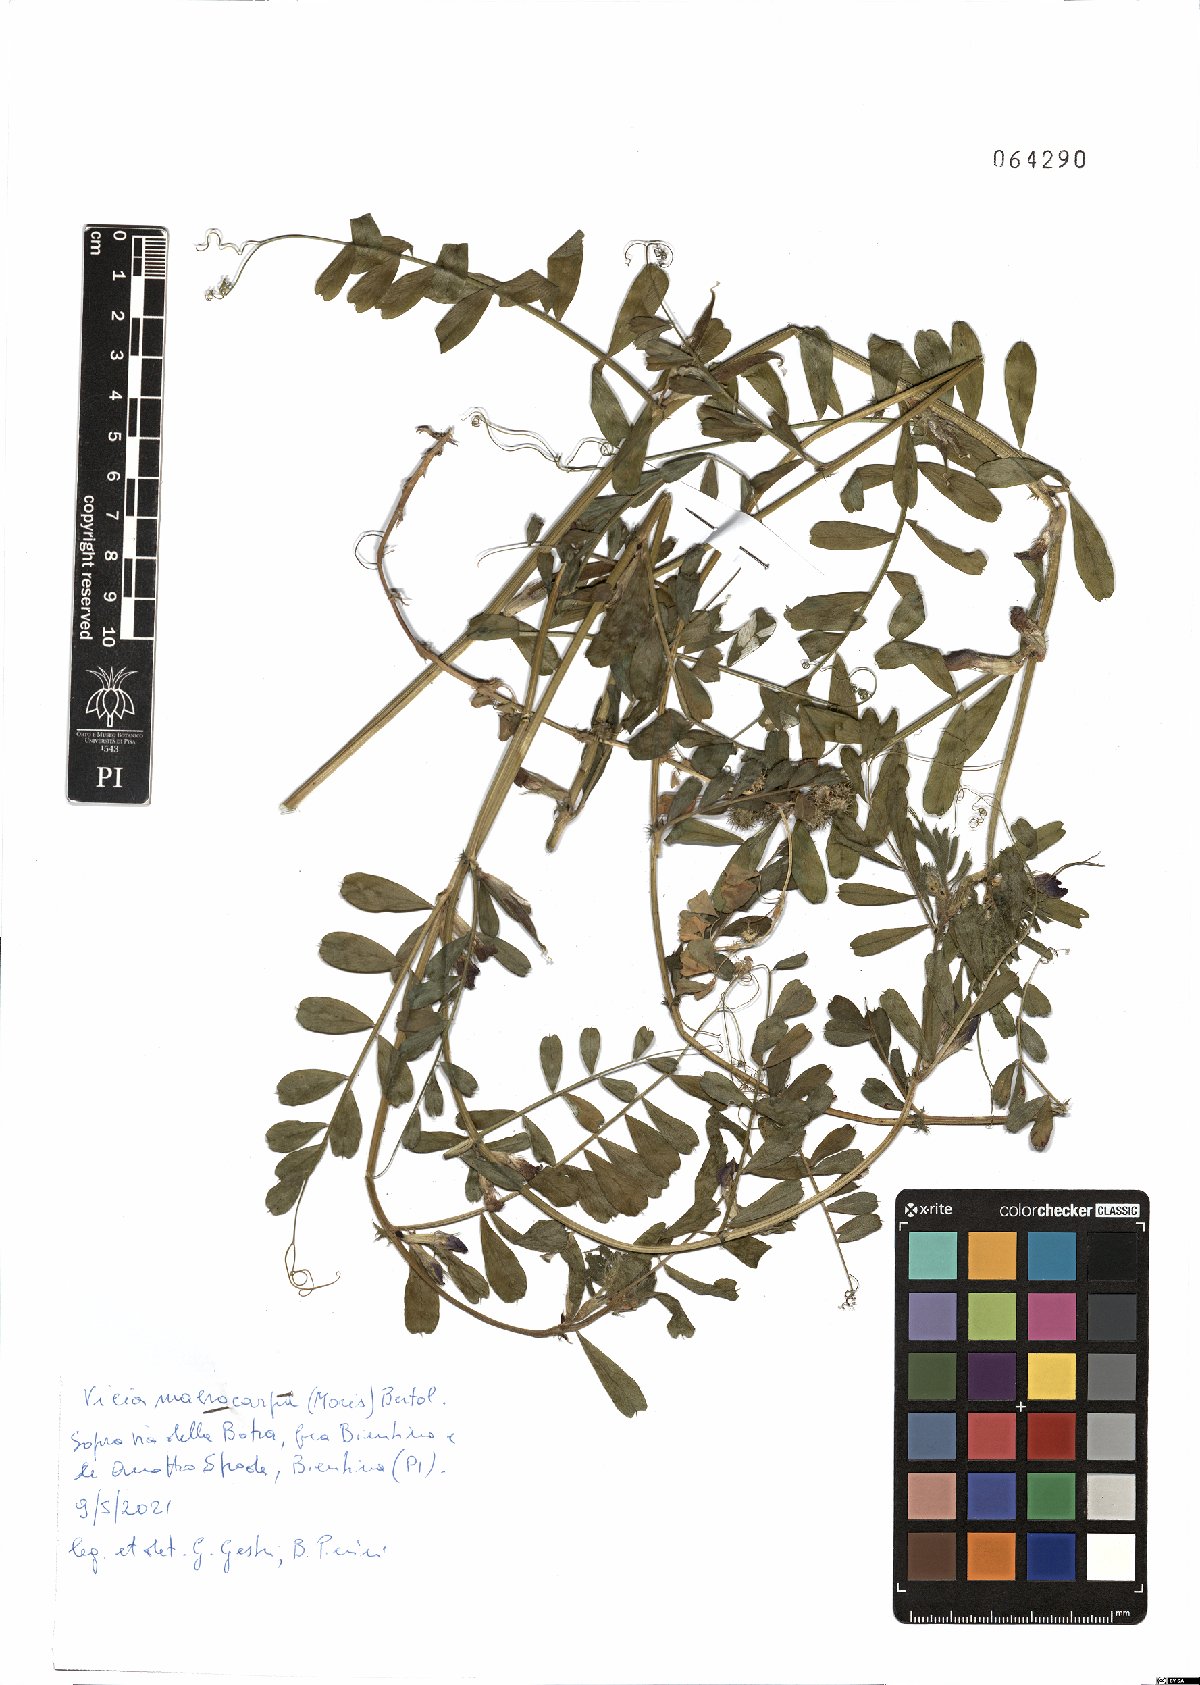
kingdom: Plantae
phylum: Tracheophyta
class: Magnoliopsida
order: Fabales
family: Fabaceae
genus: Vicia
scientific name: Vicia sativa
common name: Garden vetch
